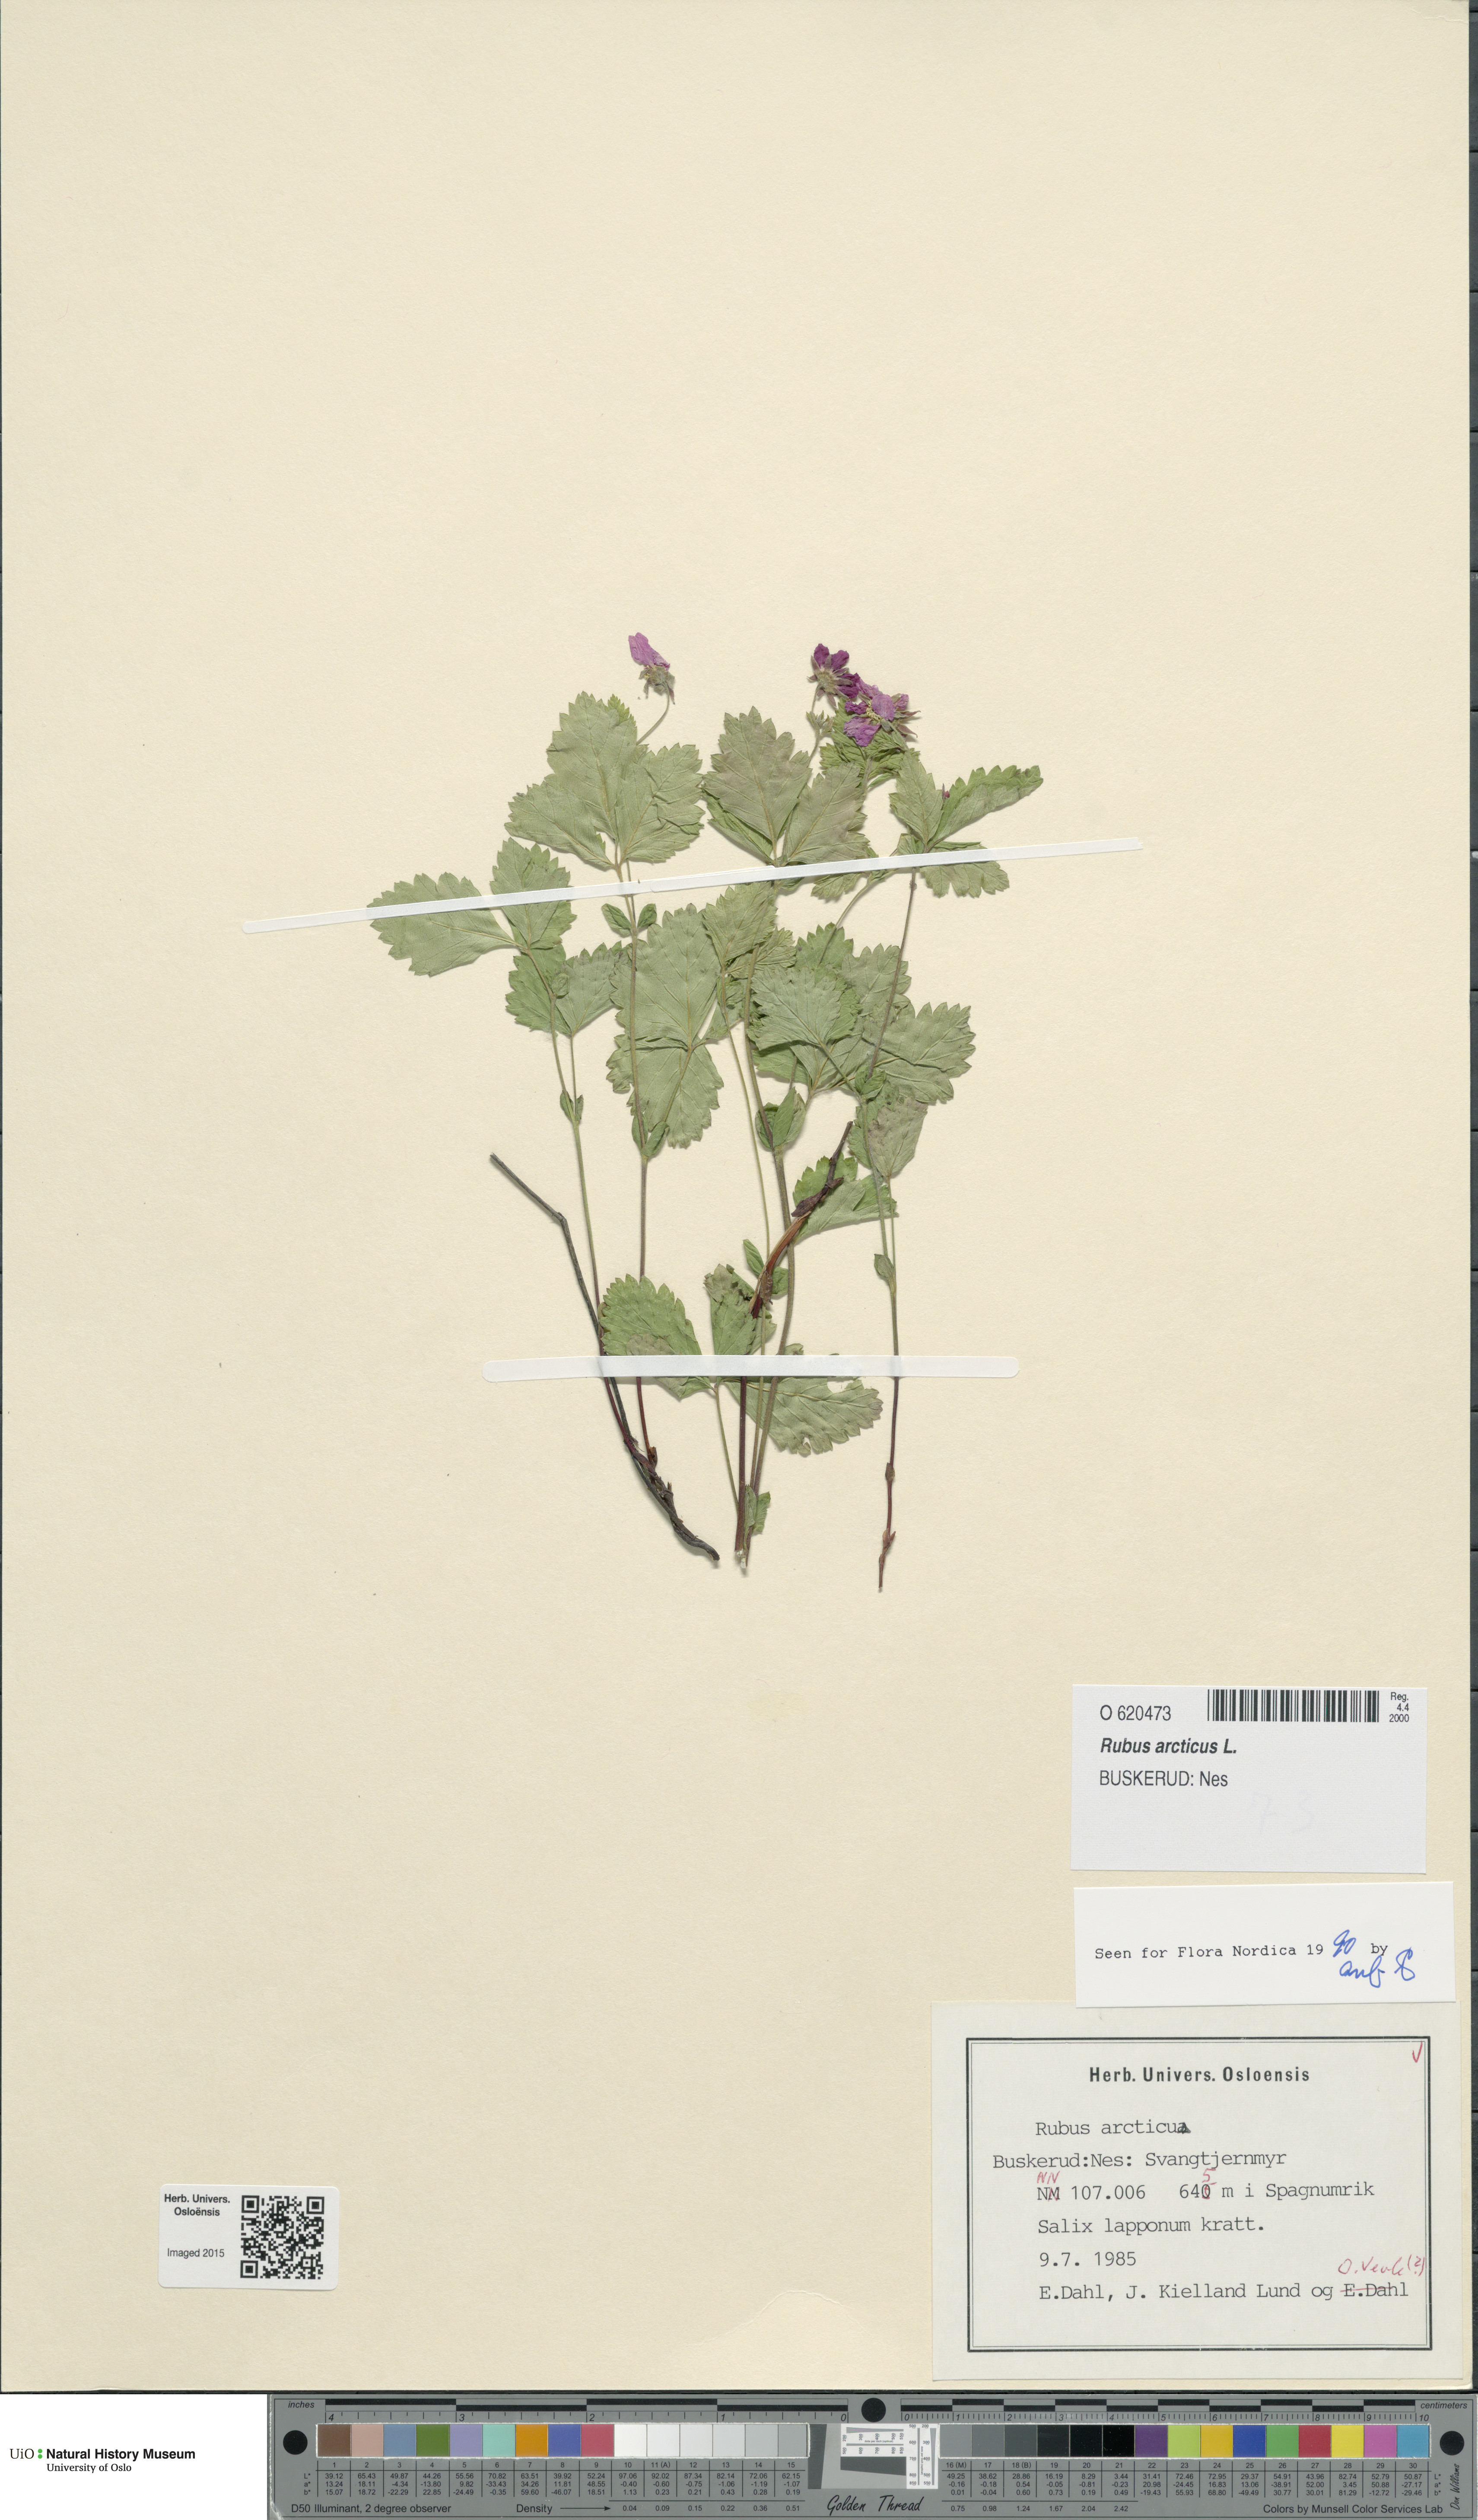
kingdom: Plantae
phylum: Tracheophyta
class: Magnoliopsida
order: Rosales
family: Rosaceae
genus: Rubus
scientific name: Rubus arcticus
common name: Arctic bramble
